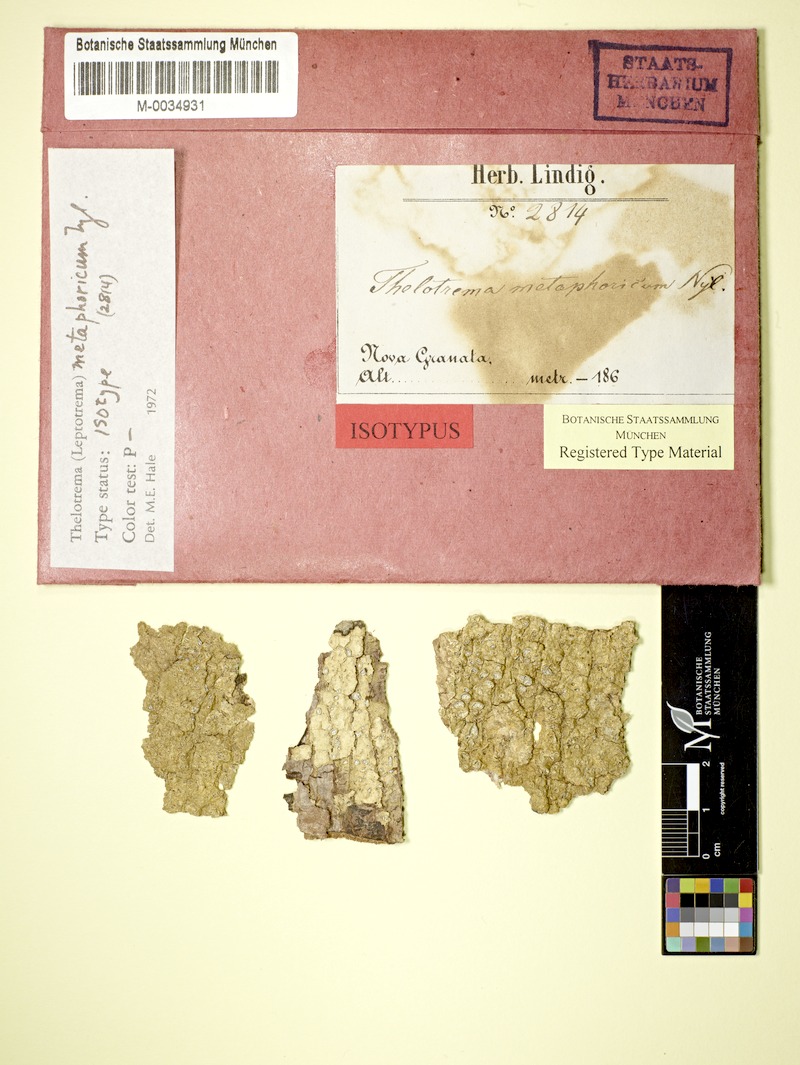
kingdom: Fungi
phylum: Ascomycota
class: Lecanoromycetes
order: Ostropales
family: Graphidaceae
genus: Stegobolus
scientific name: Stegobolus metaphoricus
